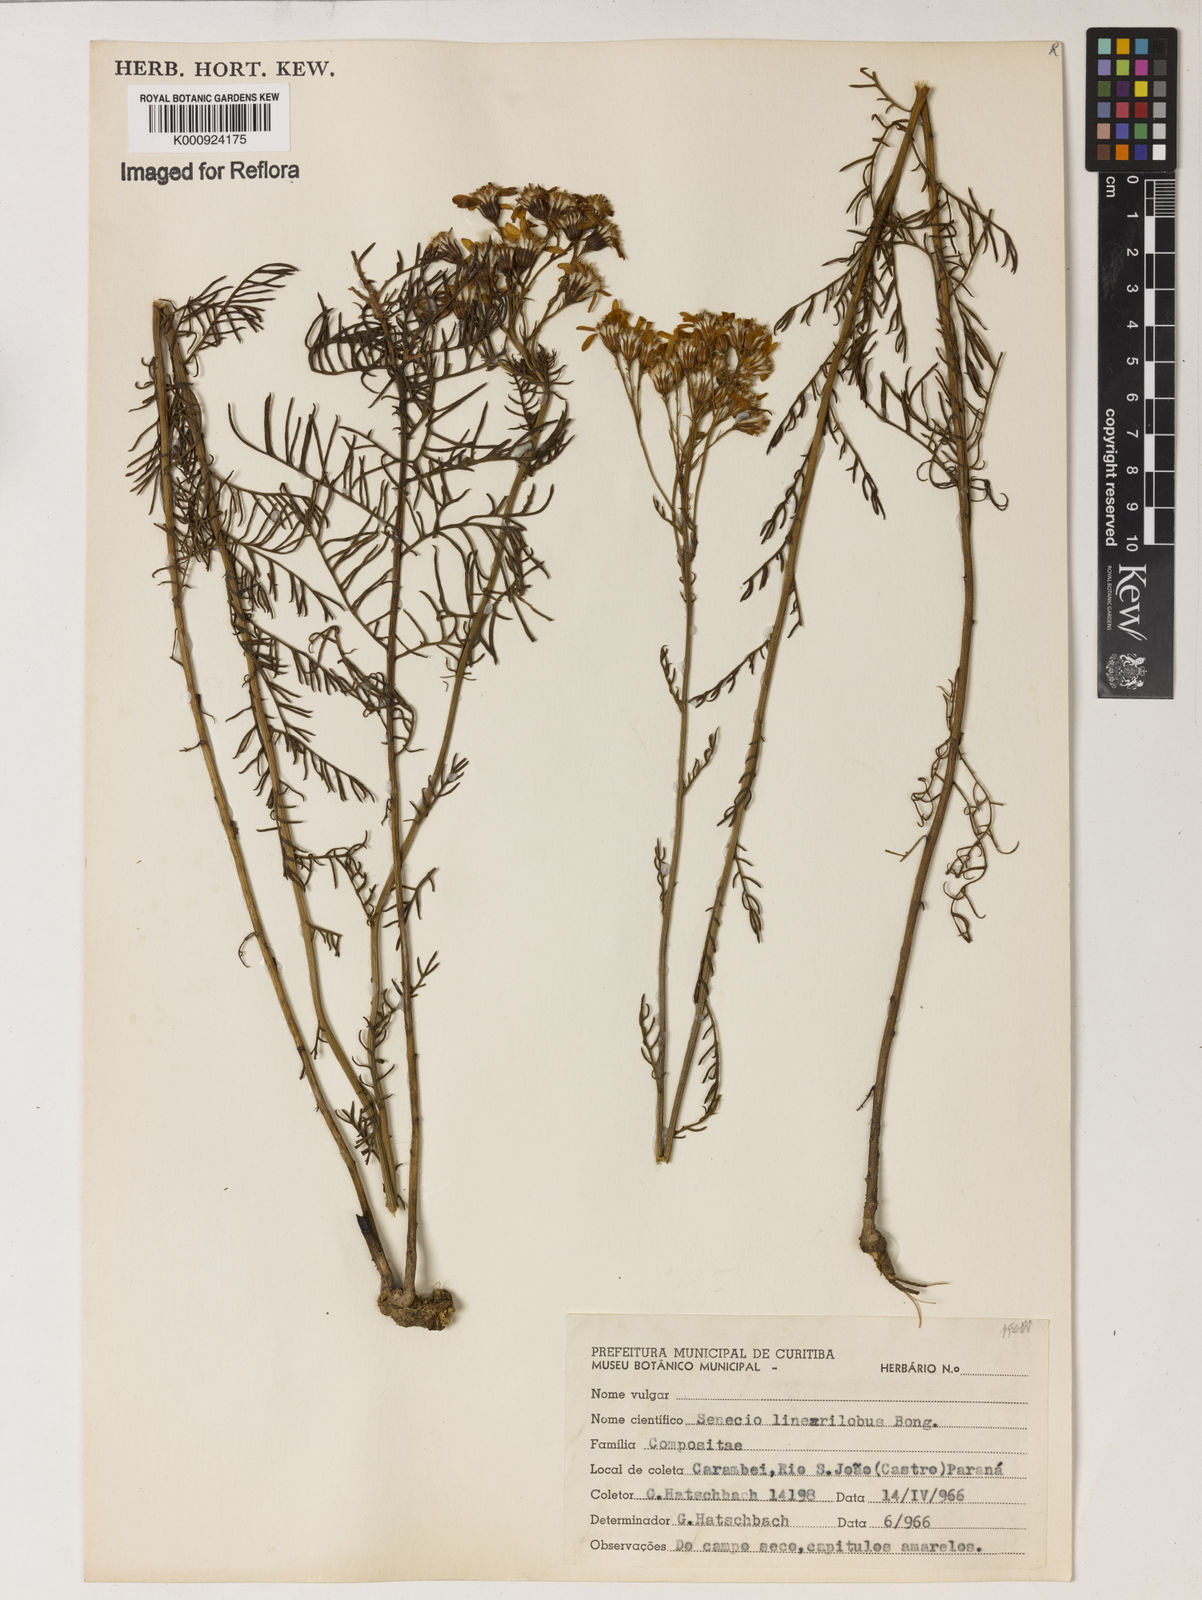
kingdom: Plantae
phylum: Tracheophyta
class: Magnoliopsida
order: Asterales
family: Asteraceae
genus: Senecio
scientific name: Senecio linearilobus
